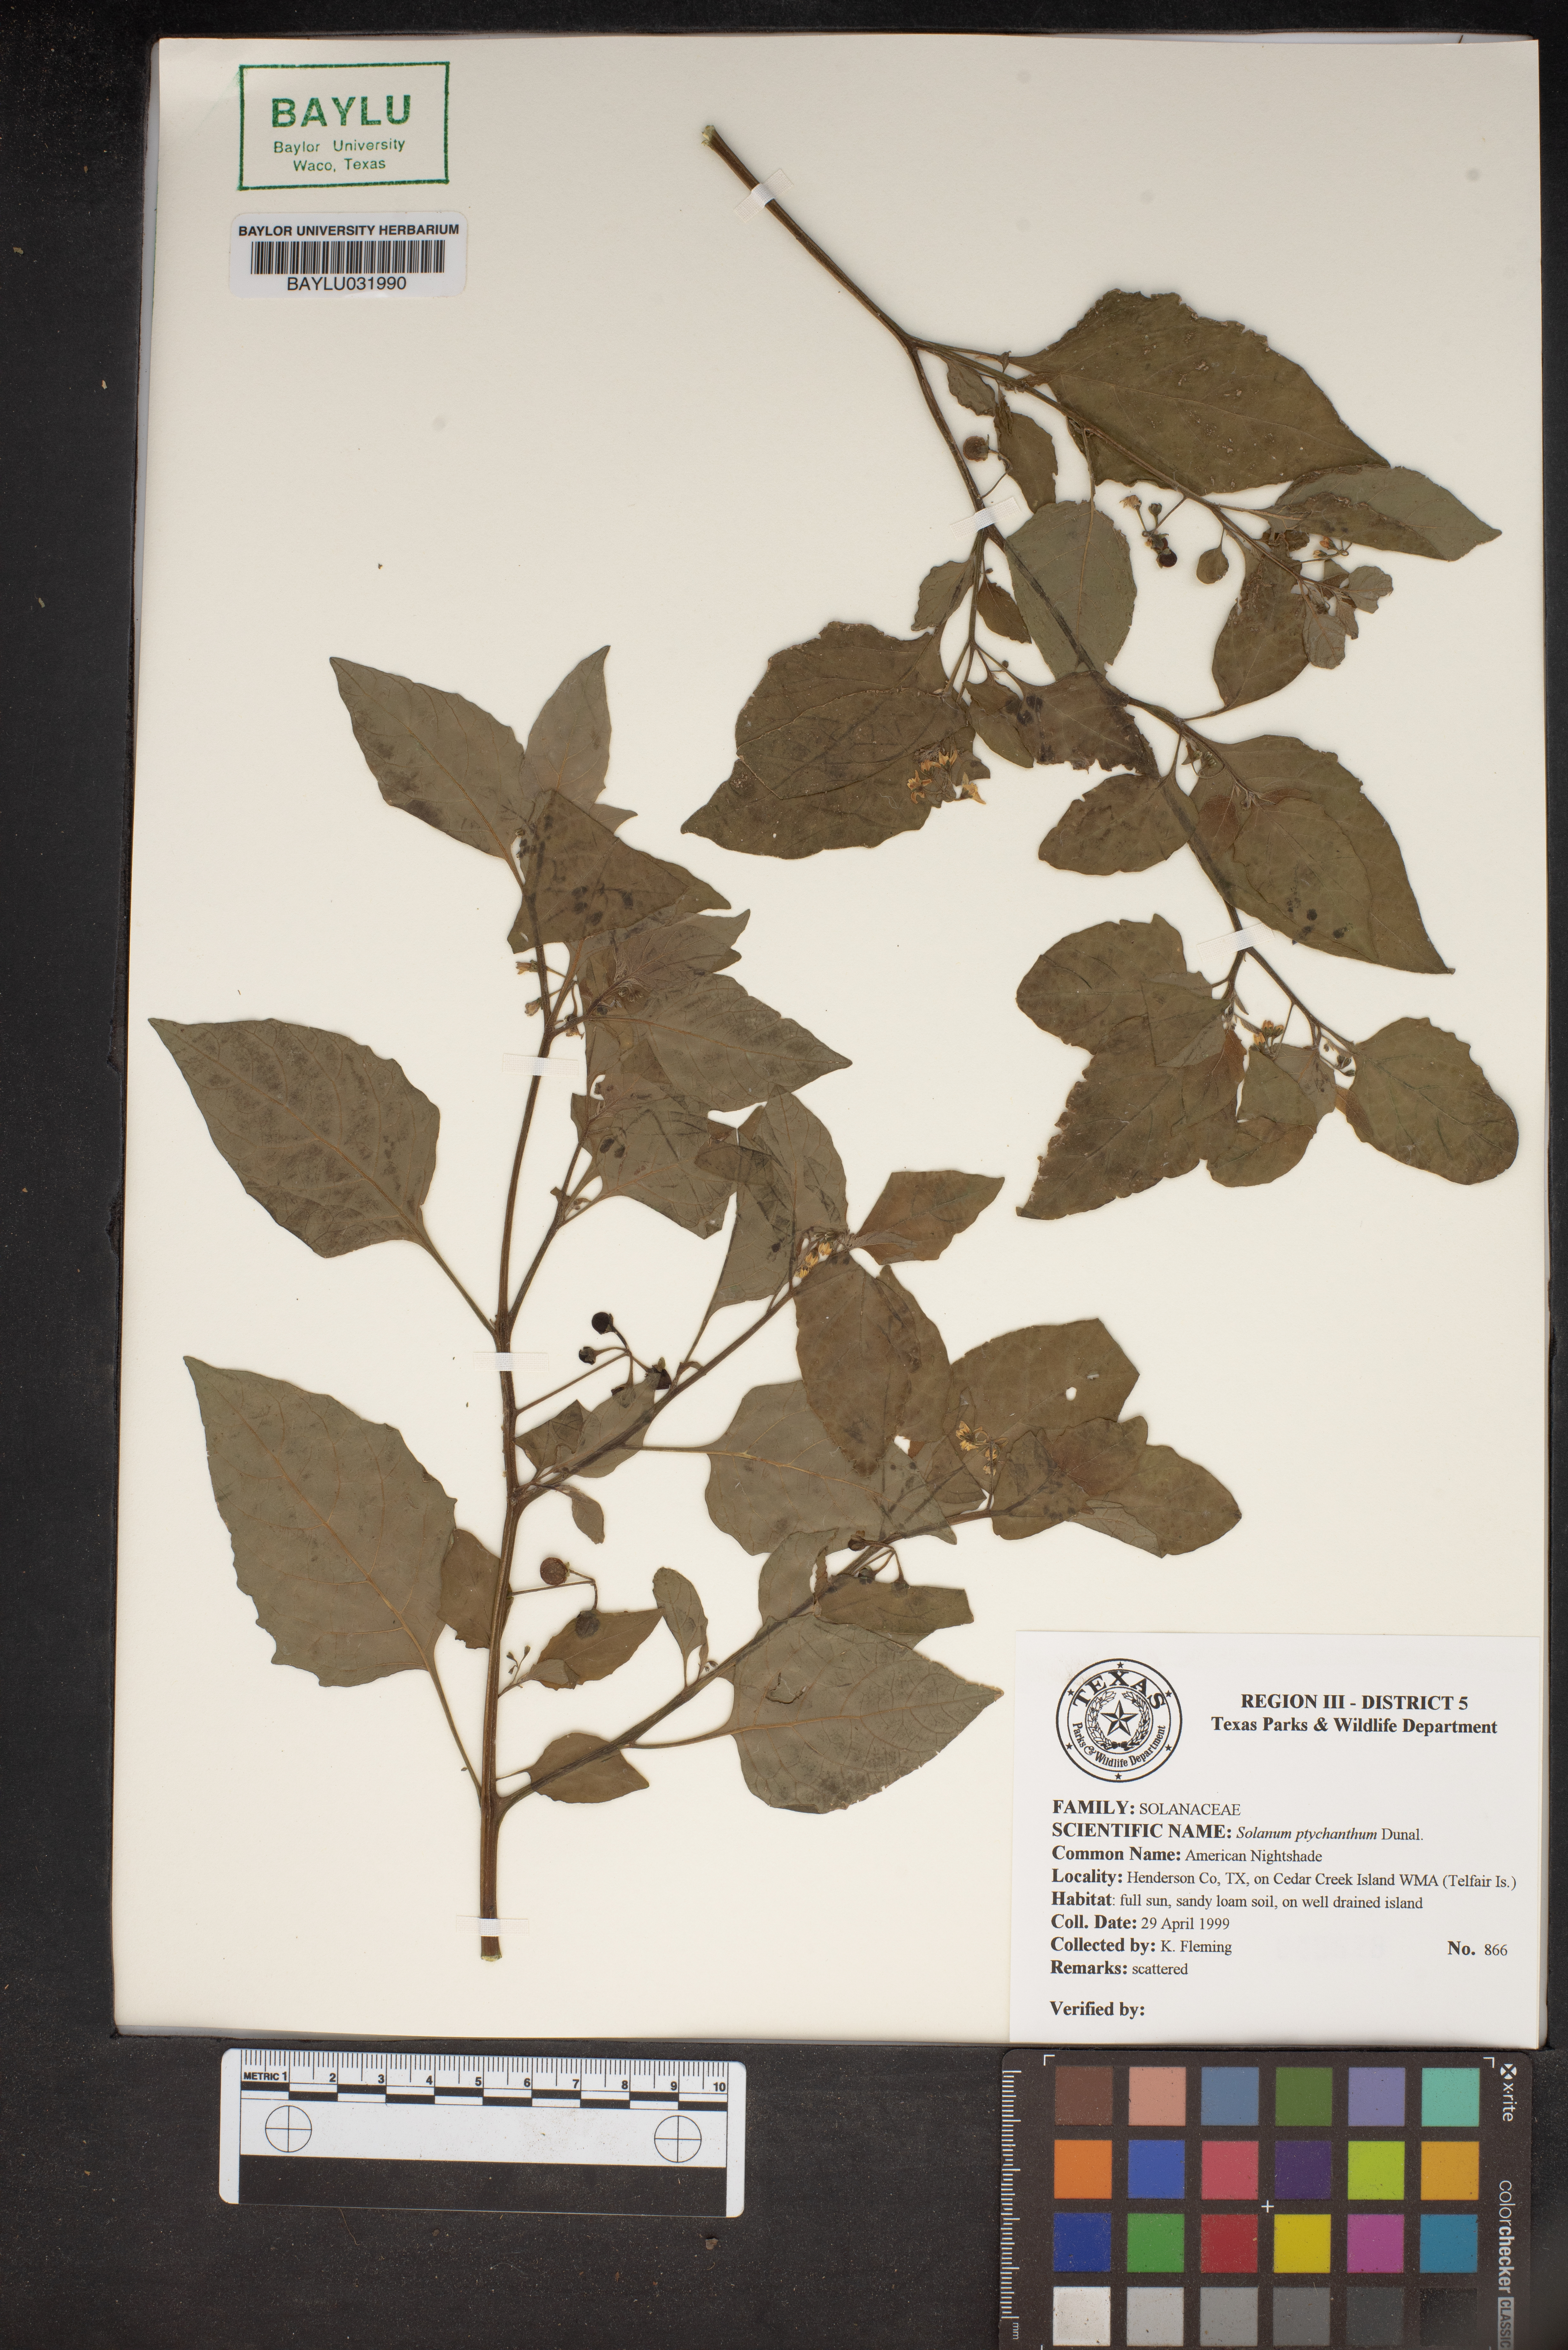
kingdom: Plantae
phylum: Tracheophyta
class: Magnoliopsida
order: Solanales
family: Solanaceae
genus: Solanum
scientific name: Solanum americanum
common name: American black nightshade
